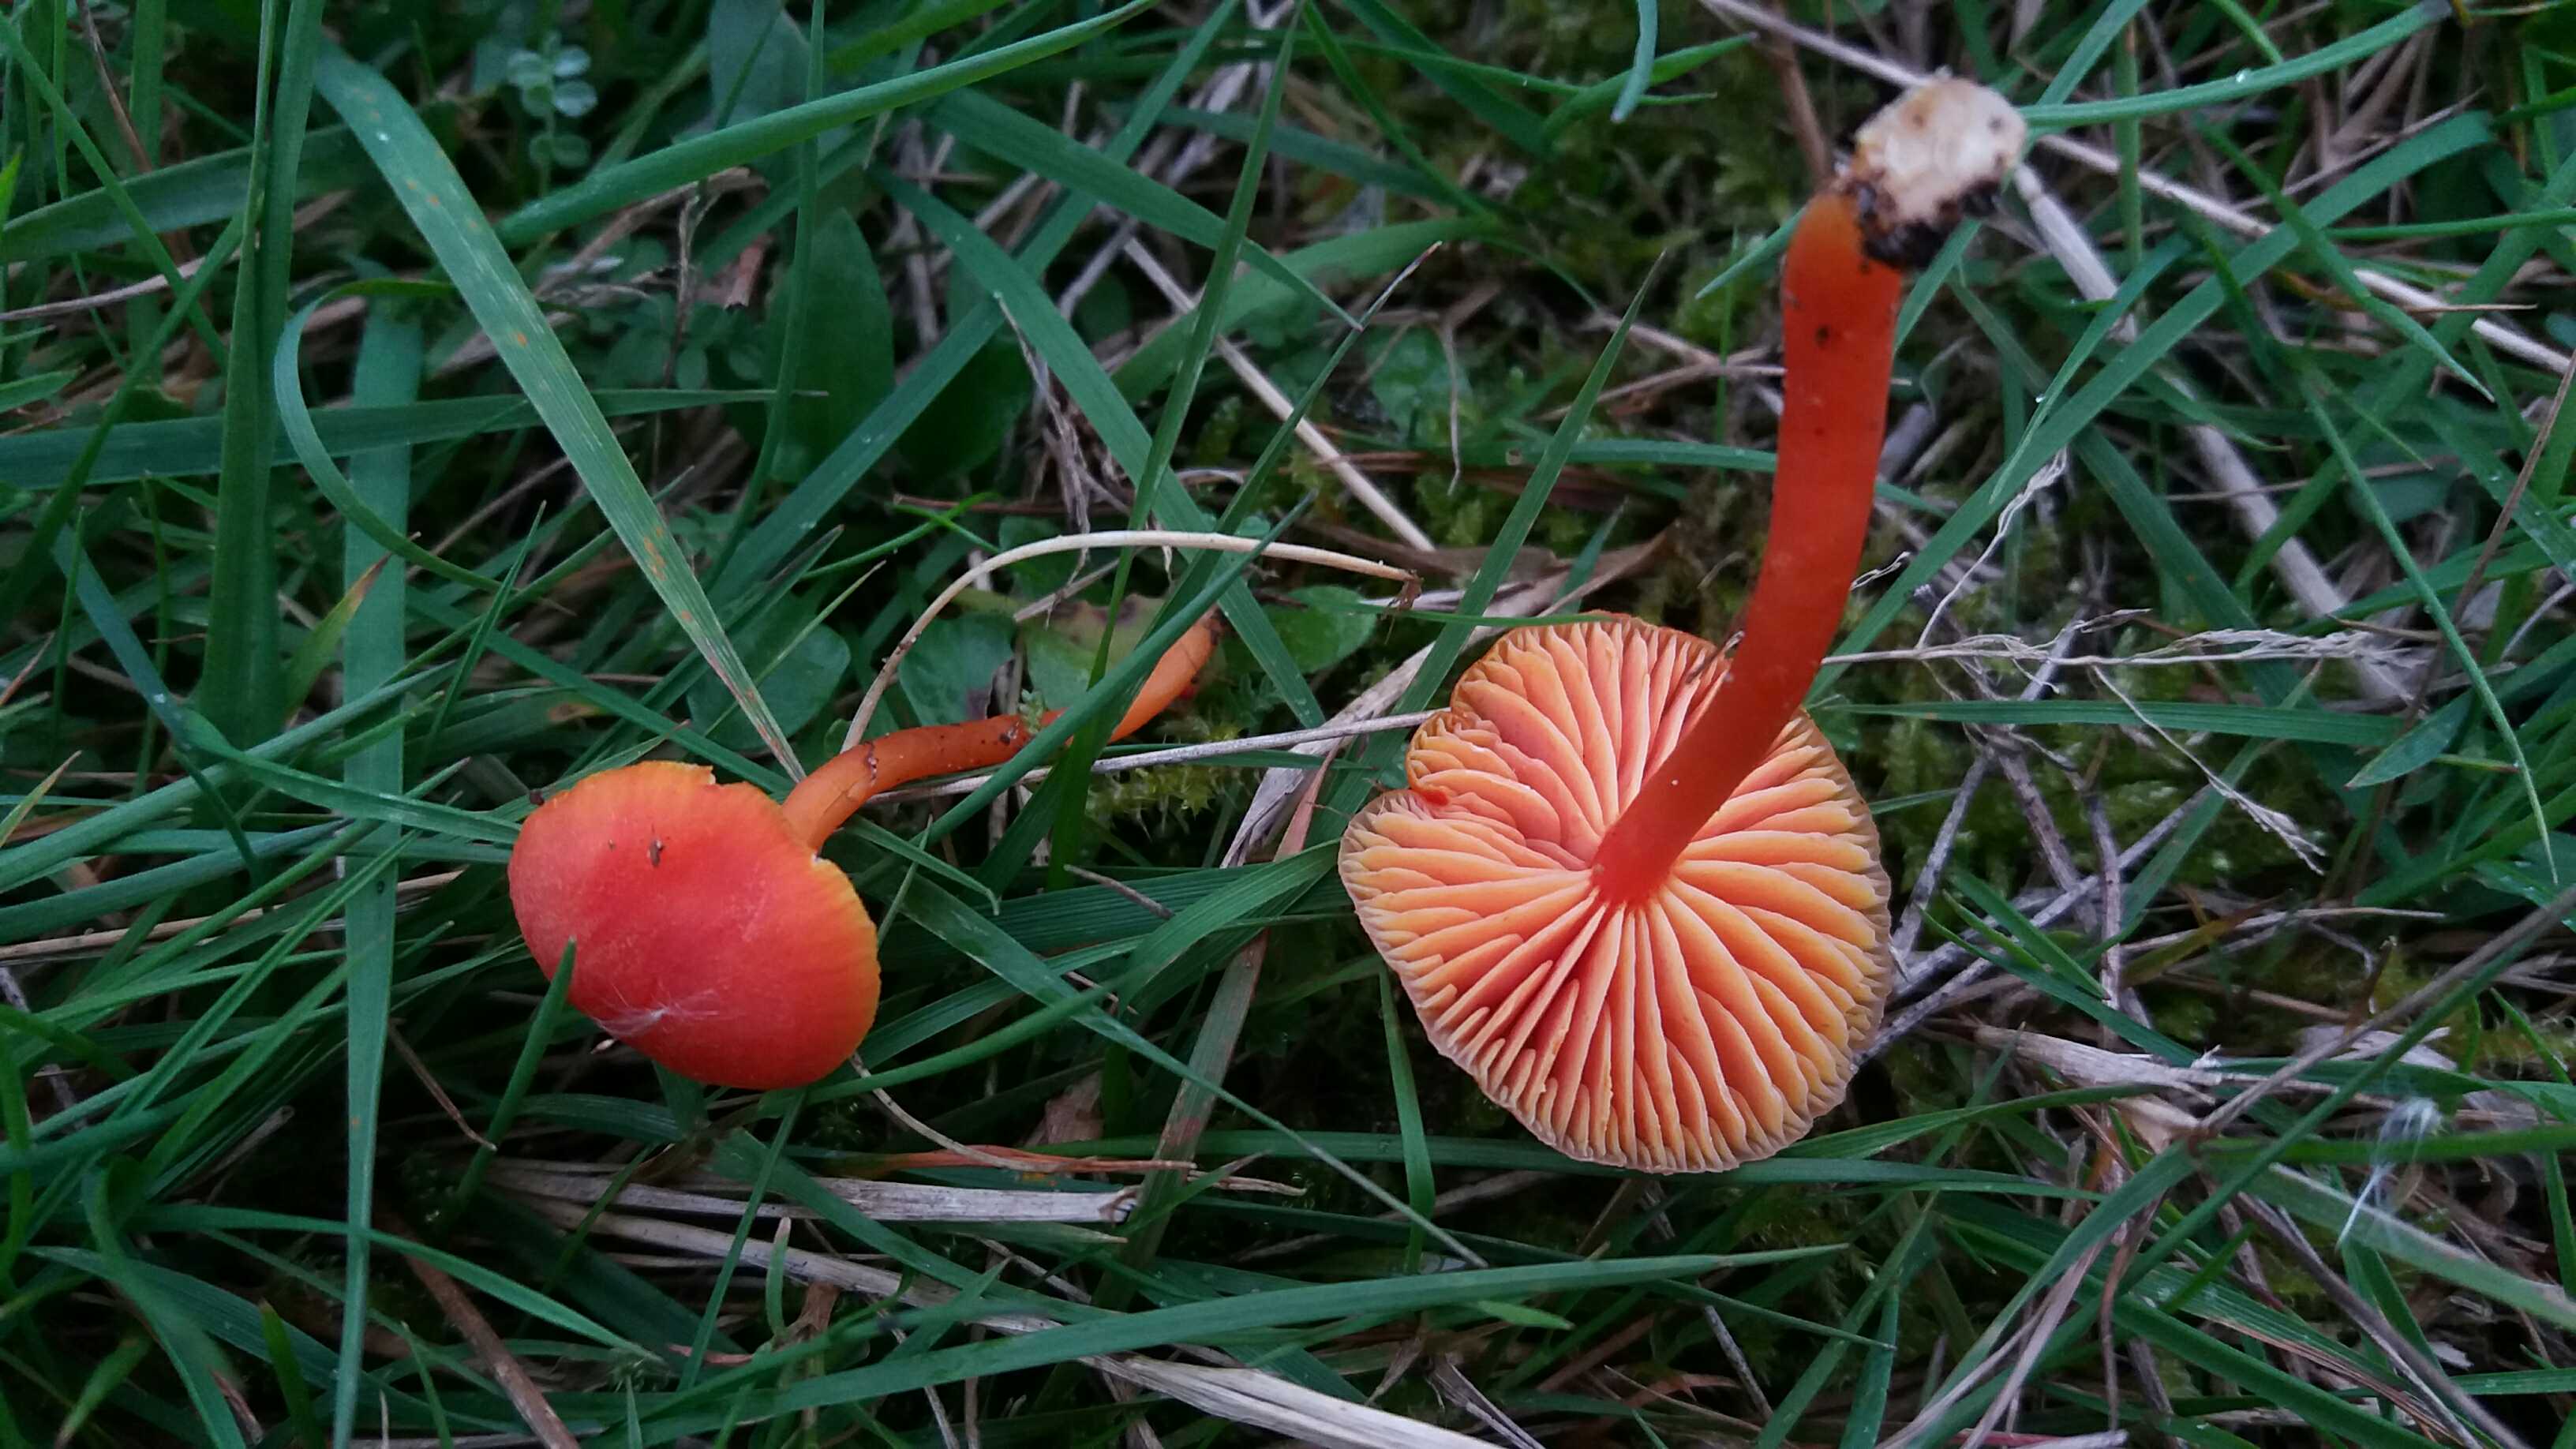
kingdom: Fungi
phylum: Basidiomycota
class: Agaricomycetes
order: Agaricales
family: Hygrophoraceae
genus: Hygrocybe
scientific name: Hygrocybe miniata
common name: mønje-vokshat
